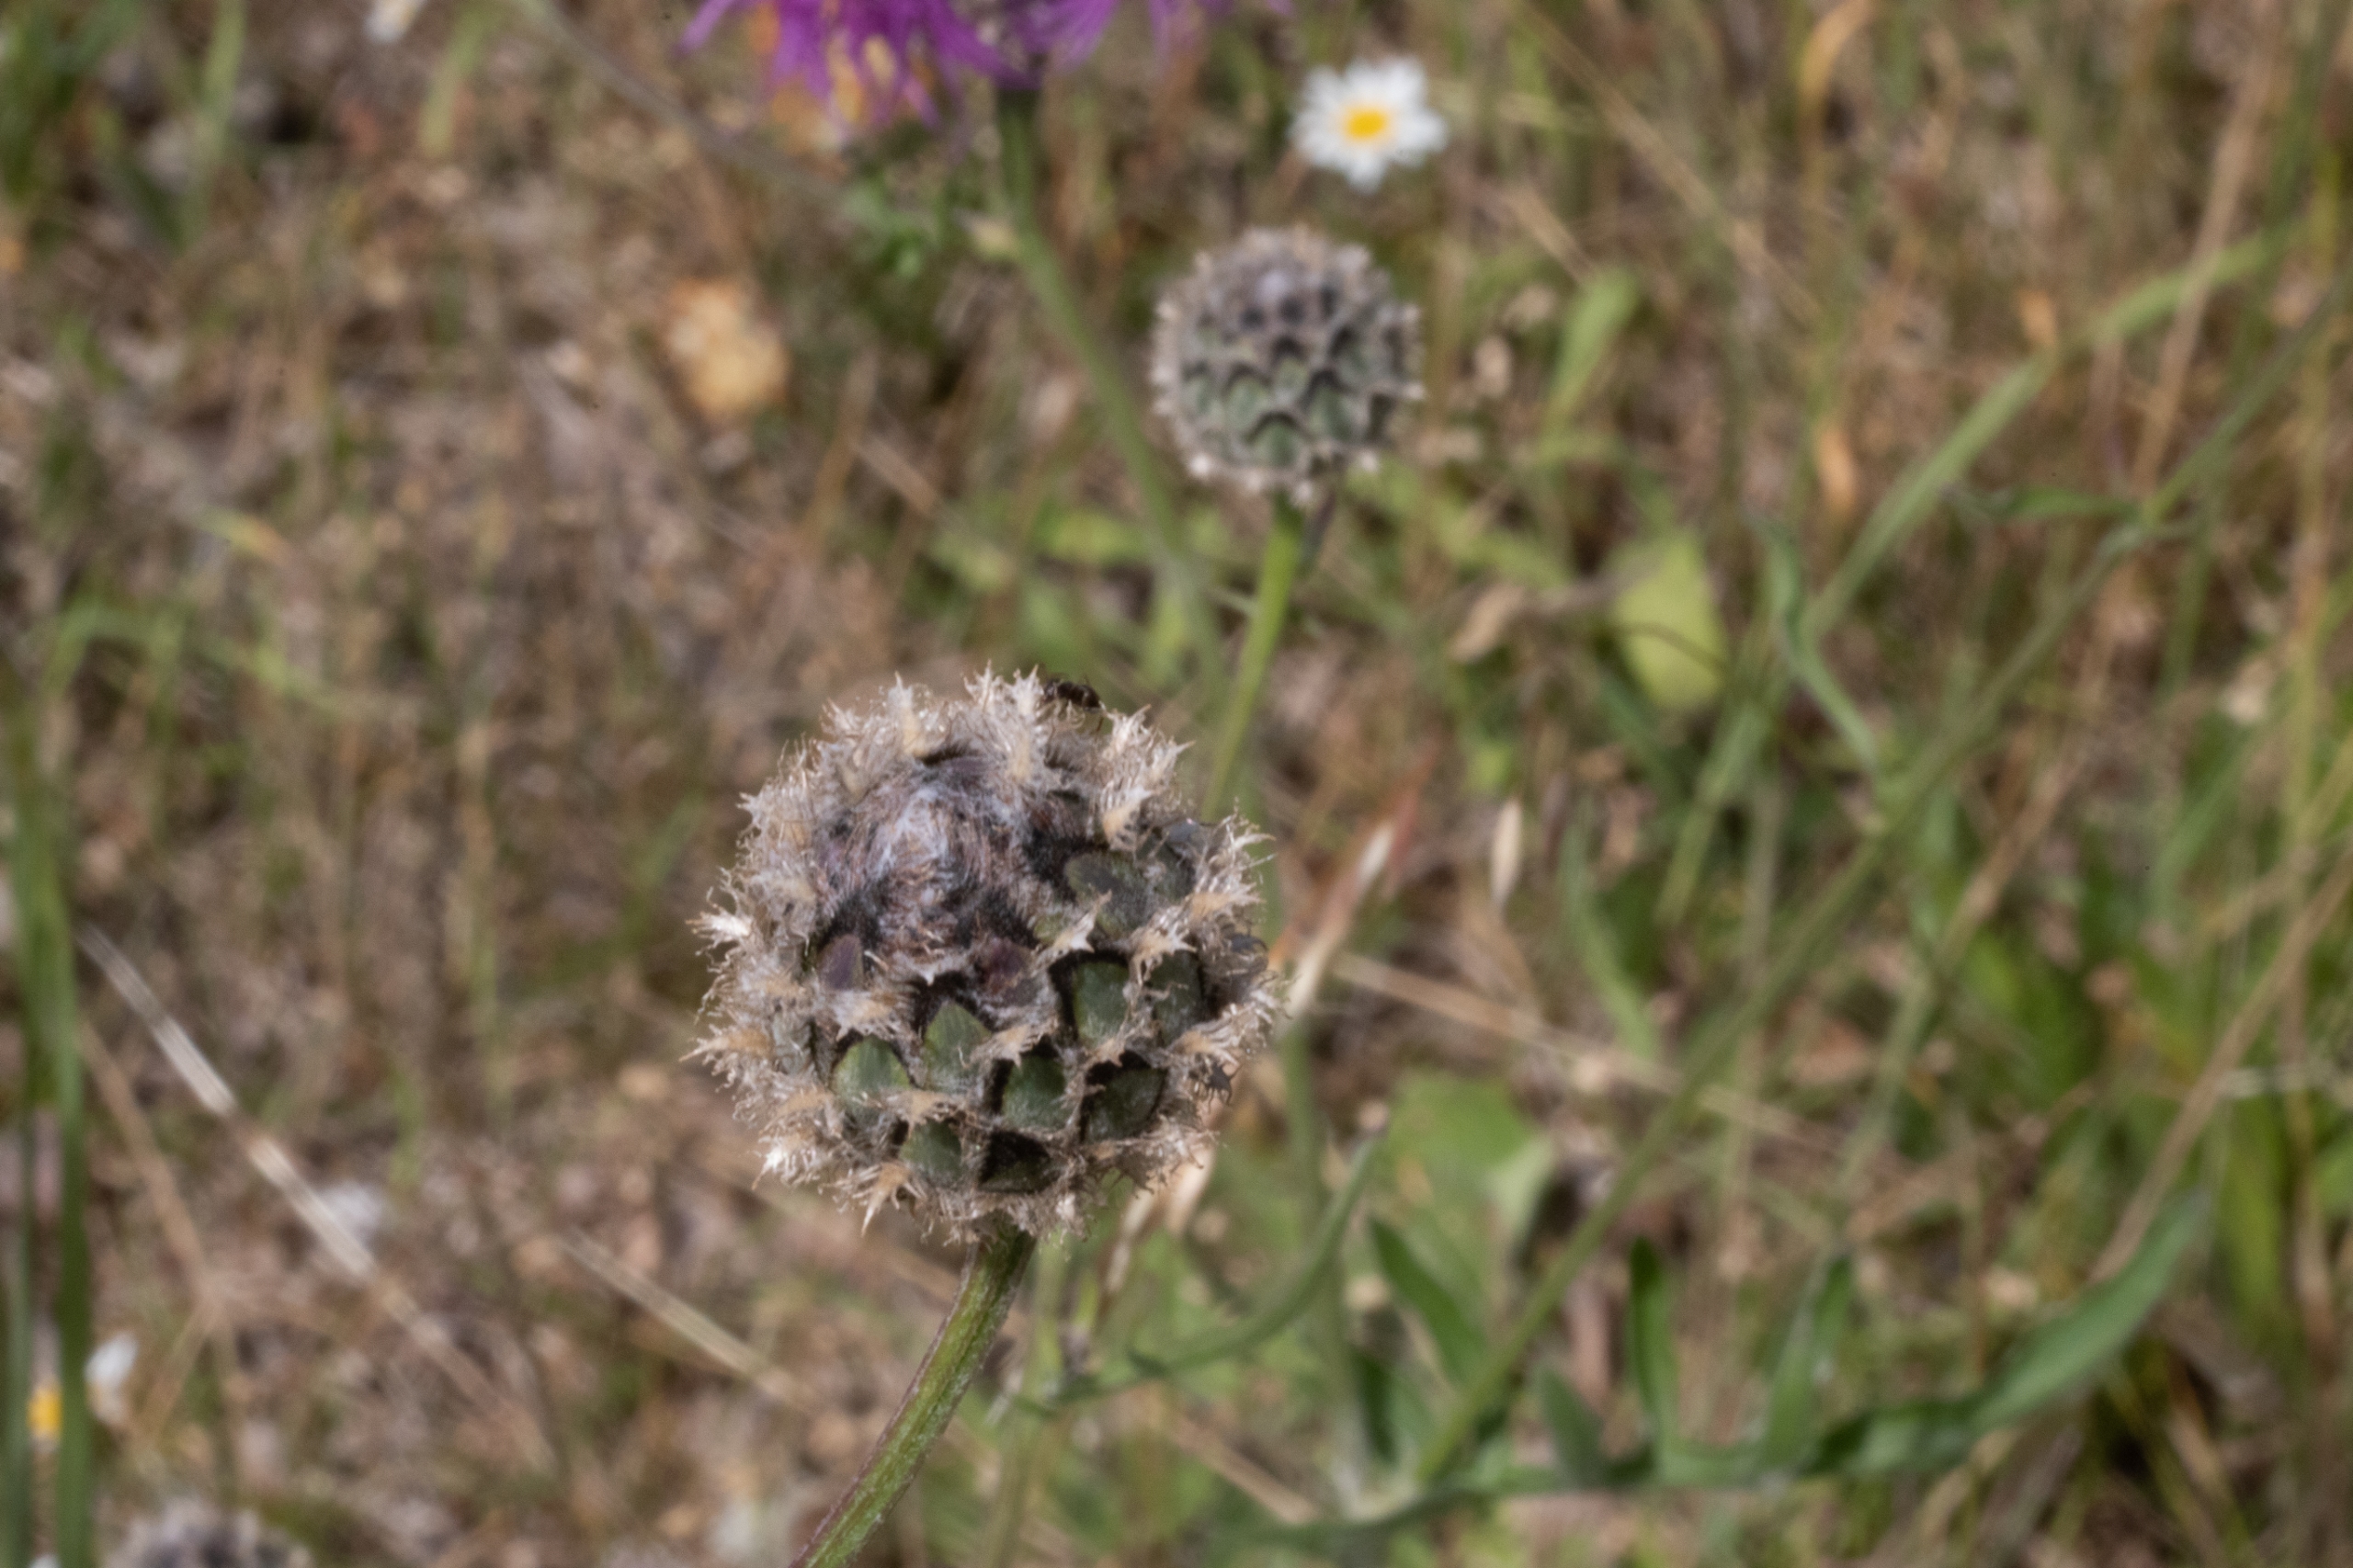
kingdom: Plantae
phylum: Tracheophyta
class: Magnoliopsida
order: Asterales
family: Asteraceae
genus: Centaurea
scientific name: Centaurea scabiosa
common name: Stor knopurt
